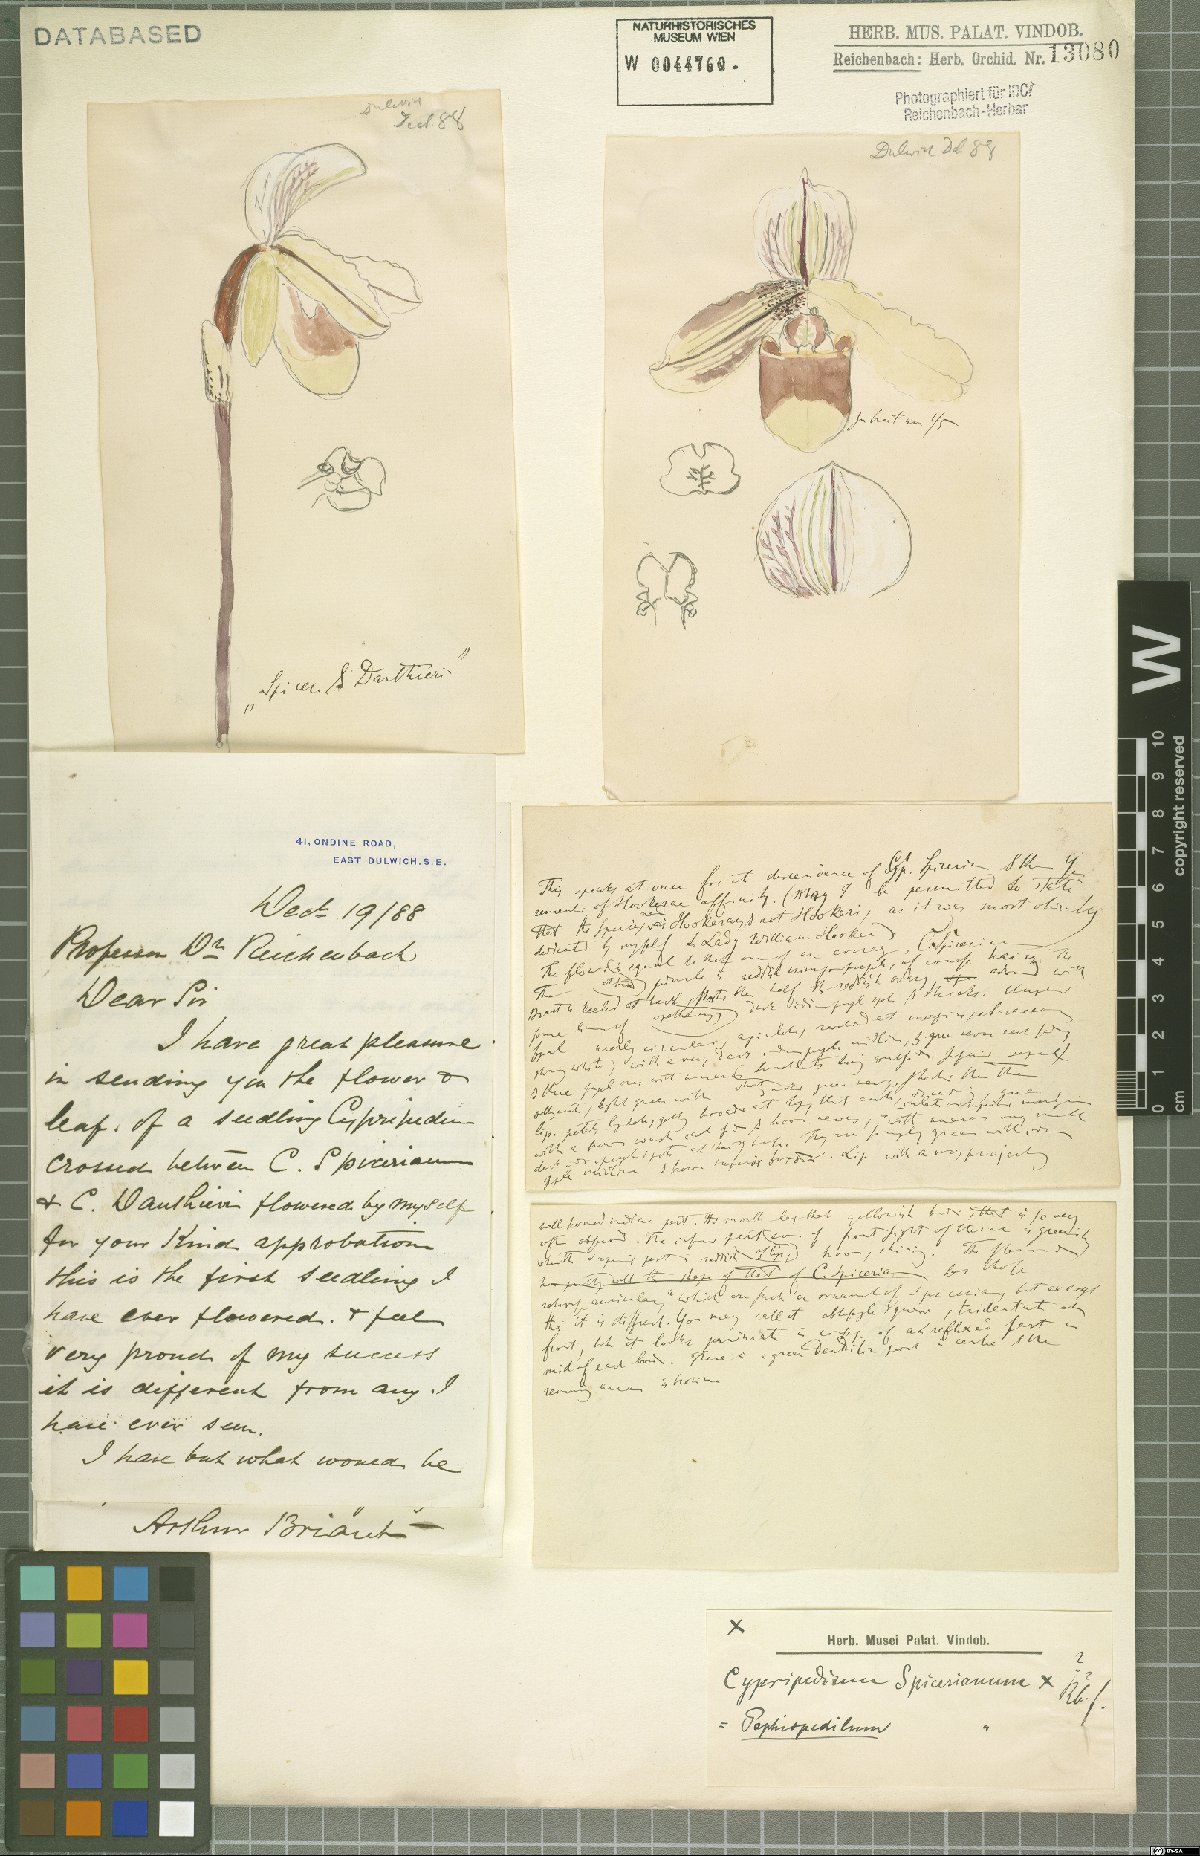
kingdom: Plantae
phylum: Tracheophyta
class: Liliopsida
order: Asparagales
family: Orchidaceae
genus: Paphiopedilum
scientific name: Paphiopedilum spicerianum
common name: Spicer’s paphiopedilum
